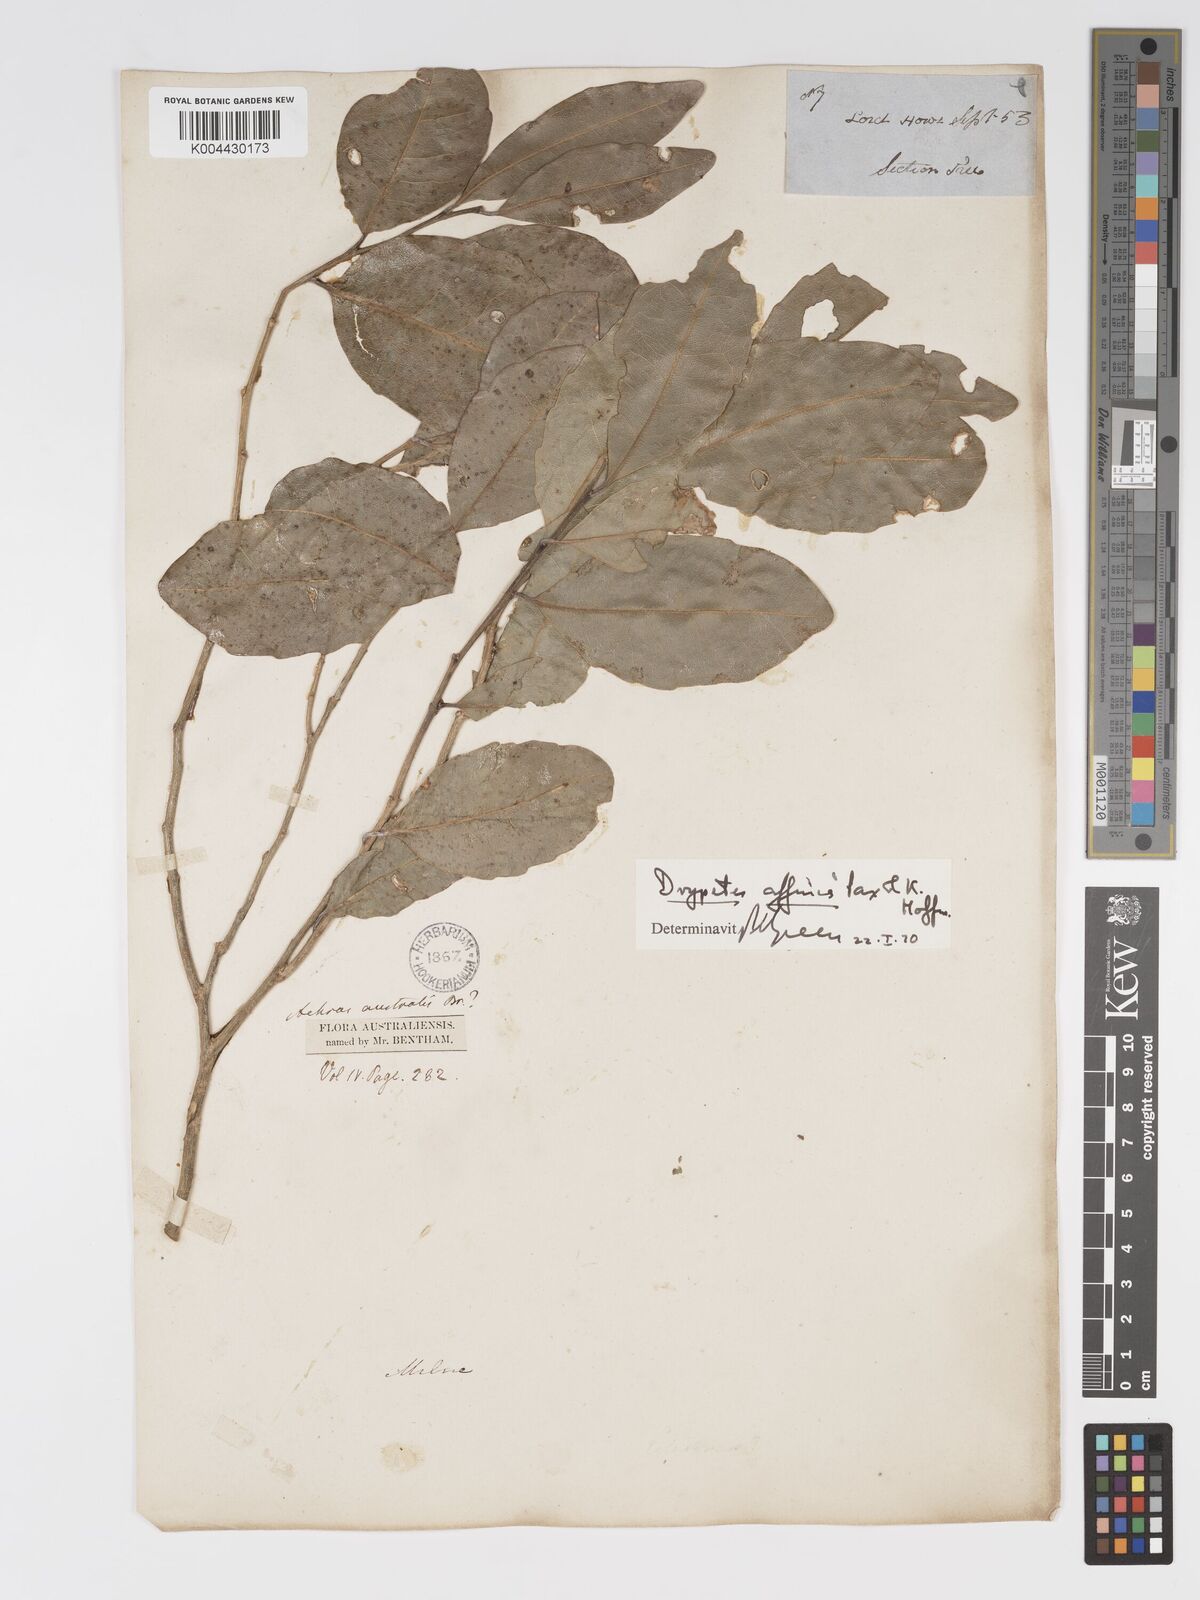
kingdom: Plantae
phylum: Tracheophyta
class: Magnoliopsida
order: Malpighiales
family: Putranjivaceae
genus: Drypetes
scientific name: Drypetes deplanchei
